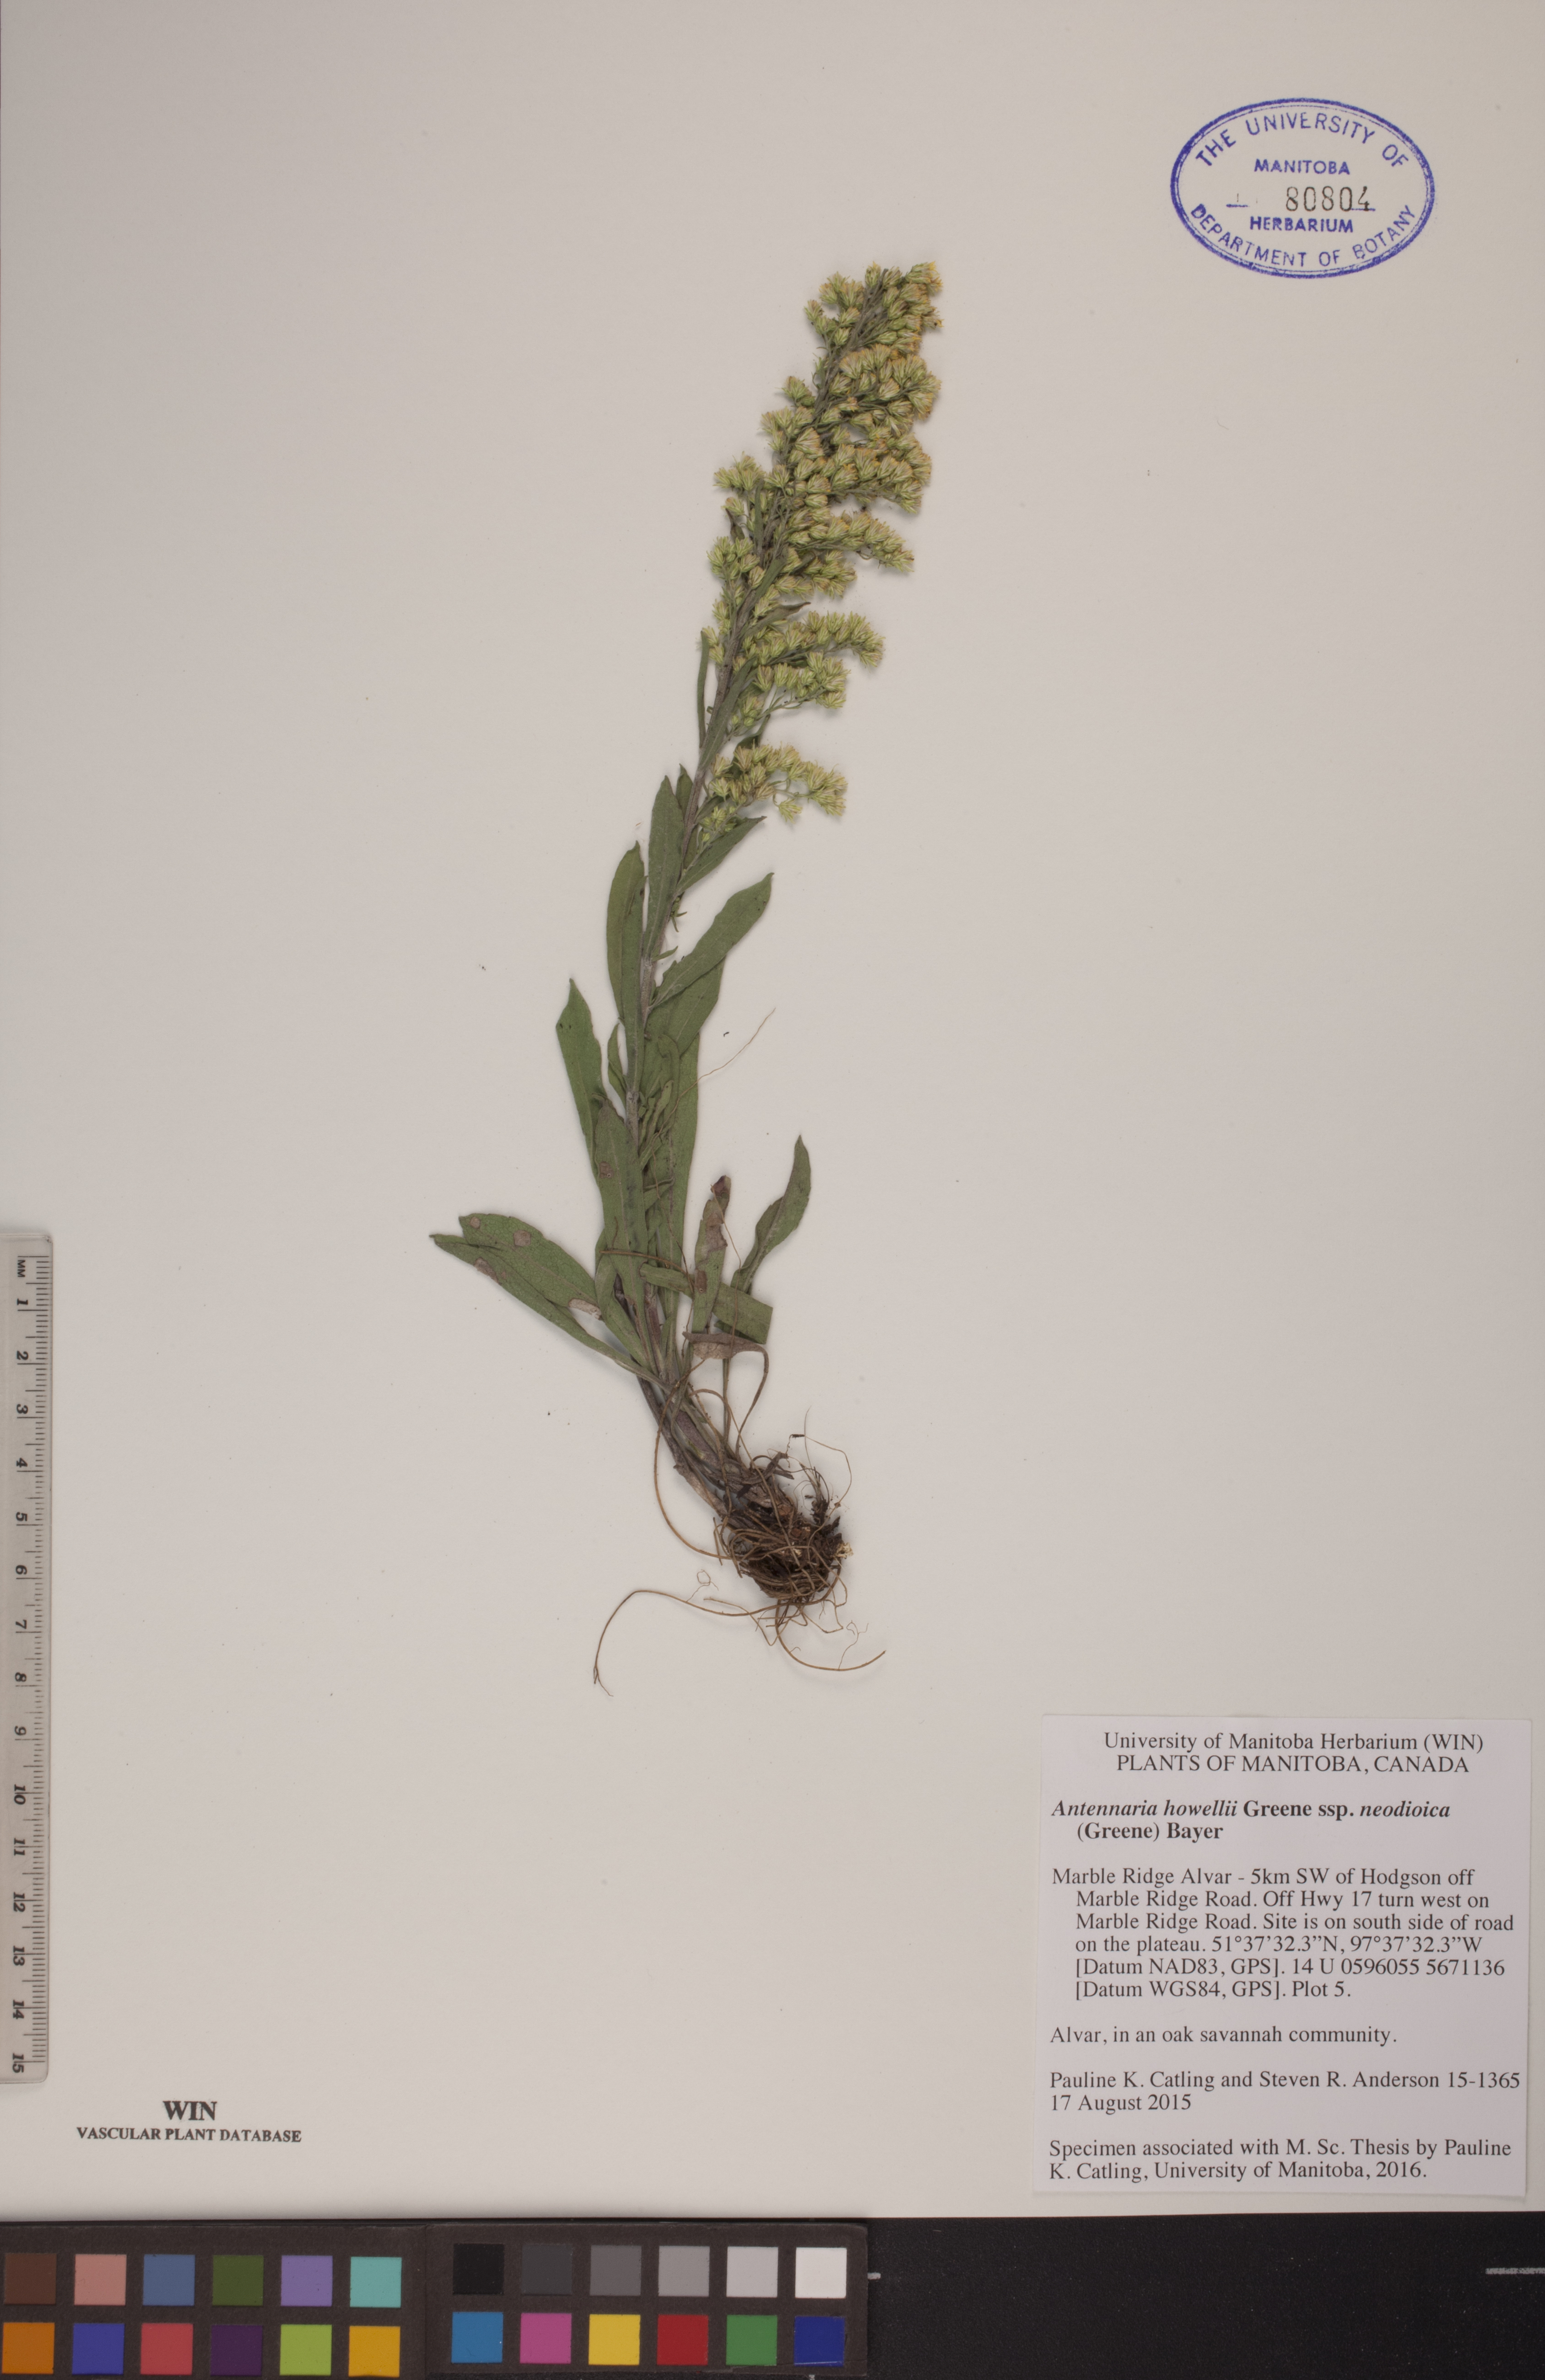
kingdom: Plantae
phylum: Tracheophyta
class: Magnoliopsida
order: Asterales
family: Asteraceae
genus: Antennaria
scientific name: Antennaria howellii
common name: Howell's pussytoes
